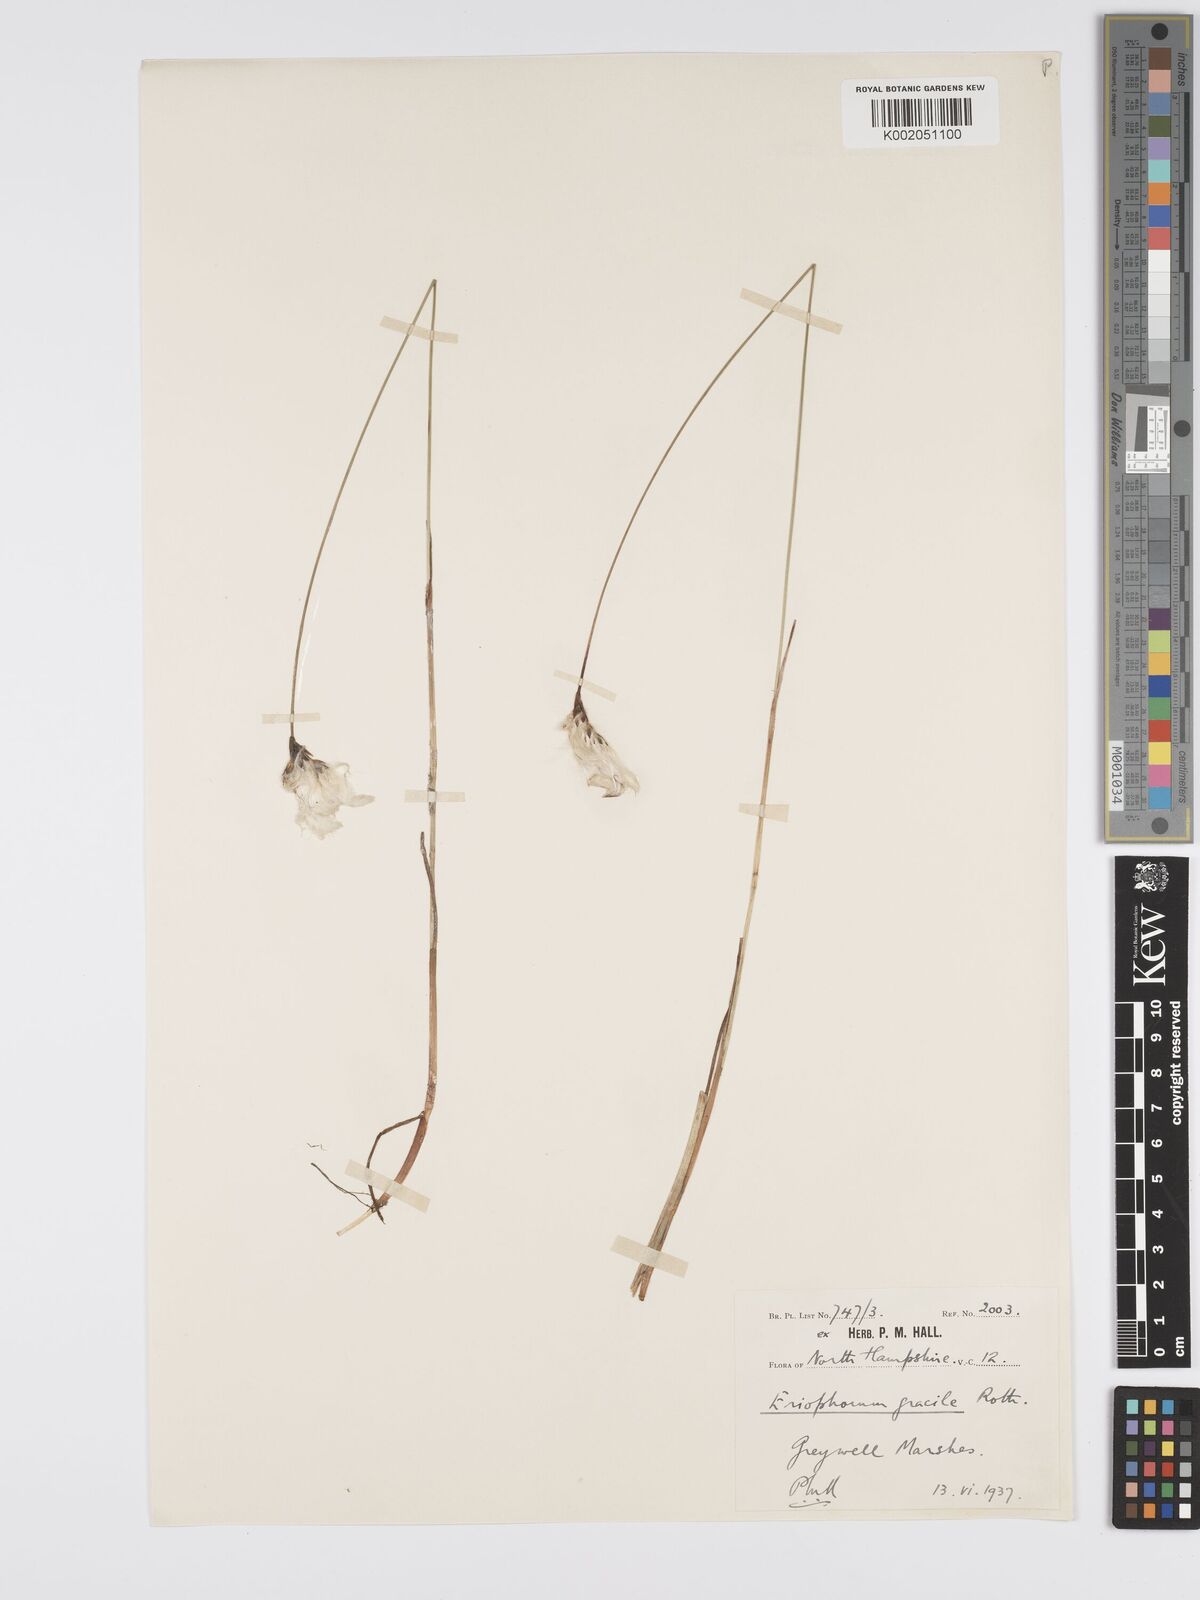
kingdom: Plantae
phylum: Tracheophyta
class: Liliopsida
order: Poales
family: Cyperaceae
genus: Eriophorum
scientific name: Eriophorum gracile
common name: Slender cottongrass
